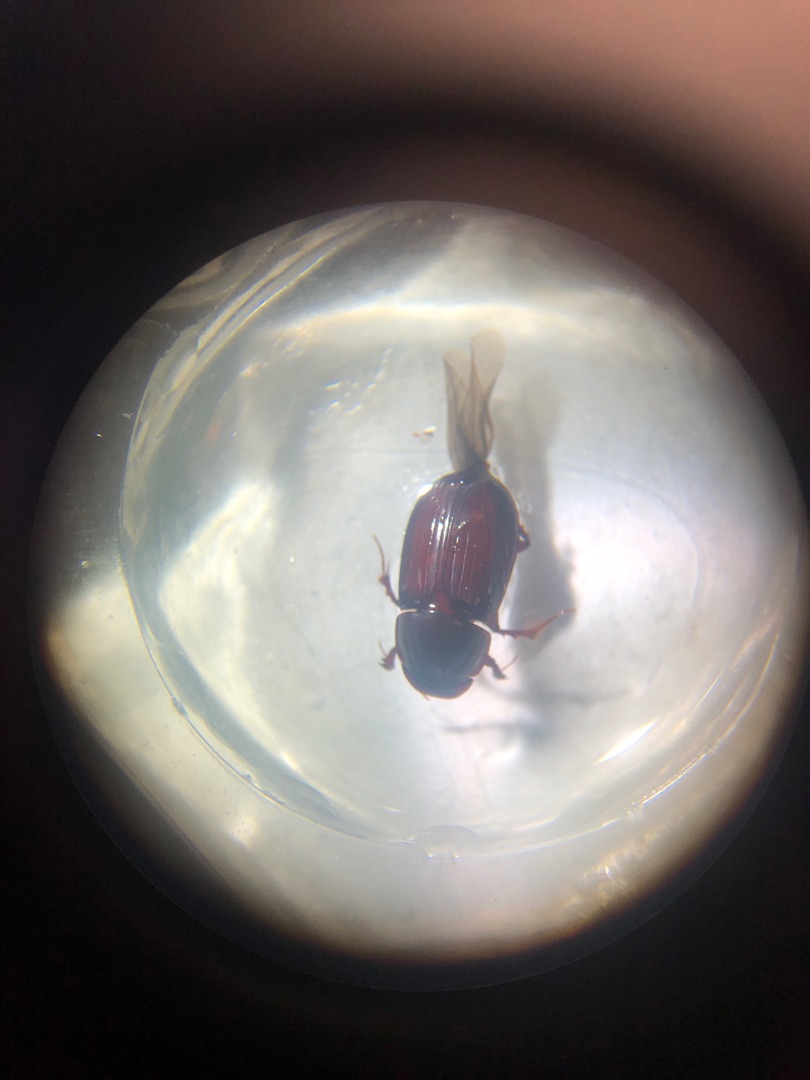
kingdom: Animalia
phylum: Arthropoda
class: Insecta
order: Coleoptera
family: Scarabaeidae
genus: Acrossus
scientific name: Acrossus rufipes
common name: Rødbenet møgbille
